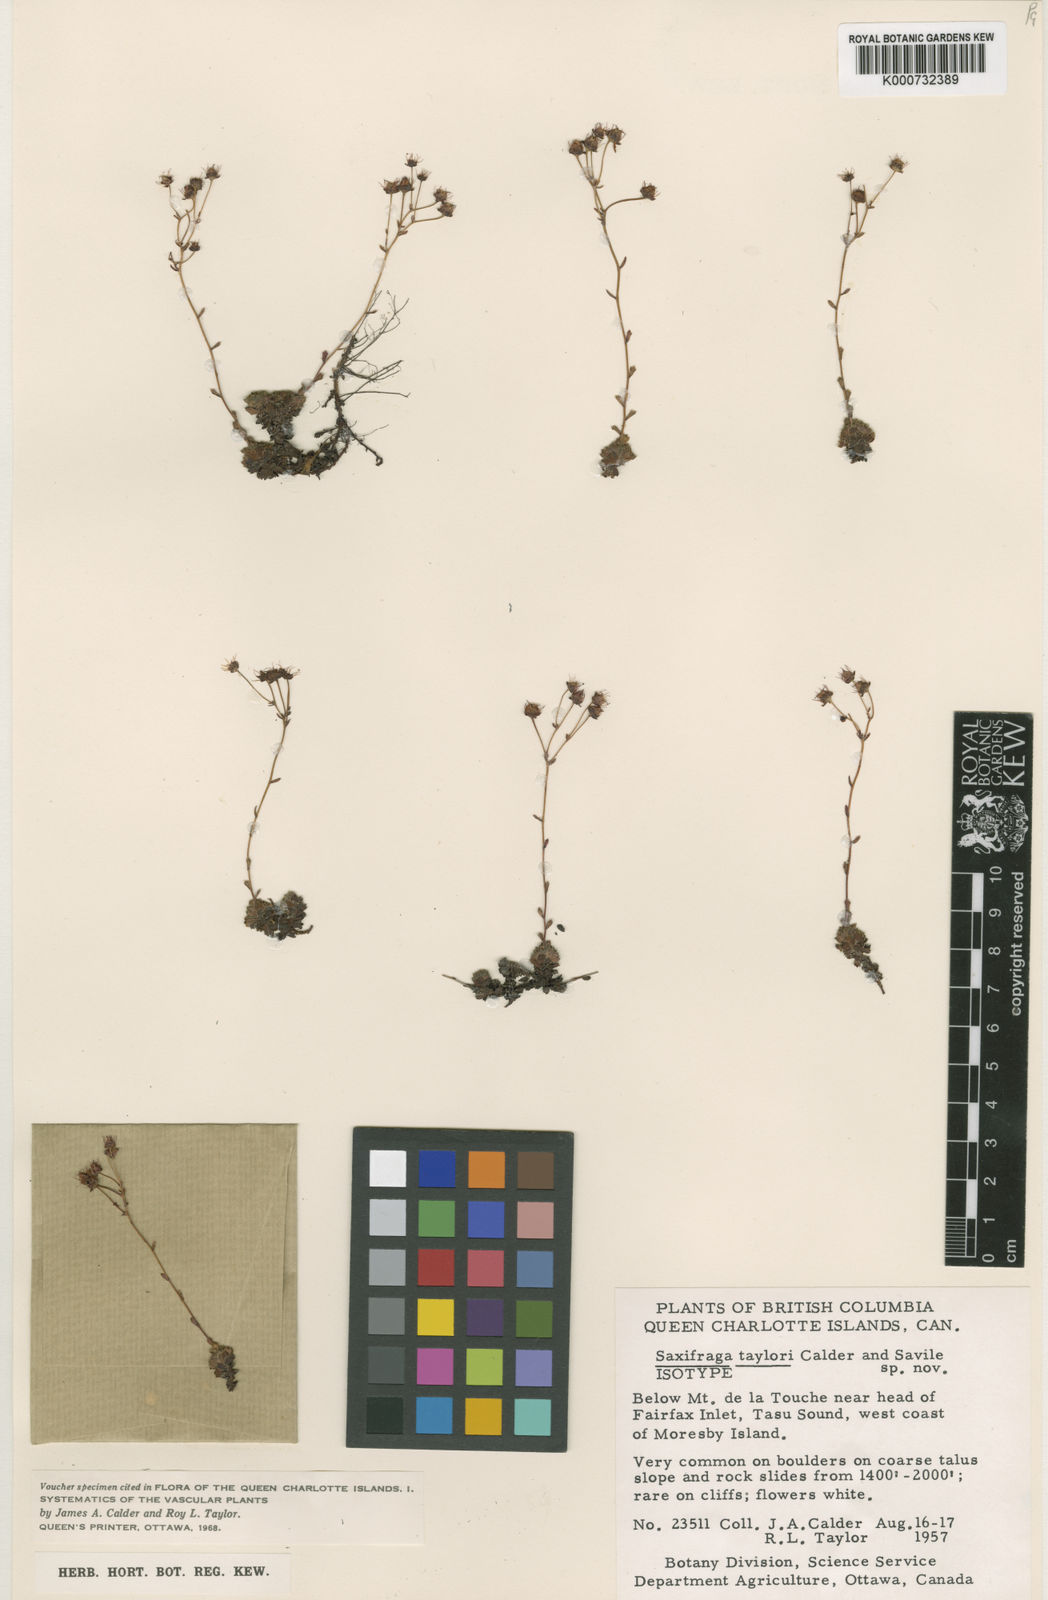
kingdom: Plantae
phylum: Tracheophyta
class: Magnoliopsida
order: Saxifragales
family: Saxifragaceae
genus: Saxifraga
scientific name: Saxifraga taylorii
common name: Taylor's saxifrage
